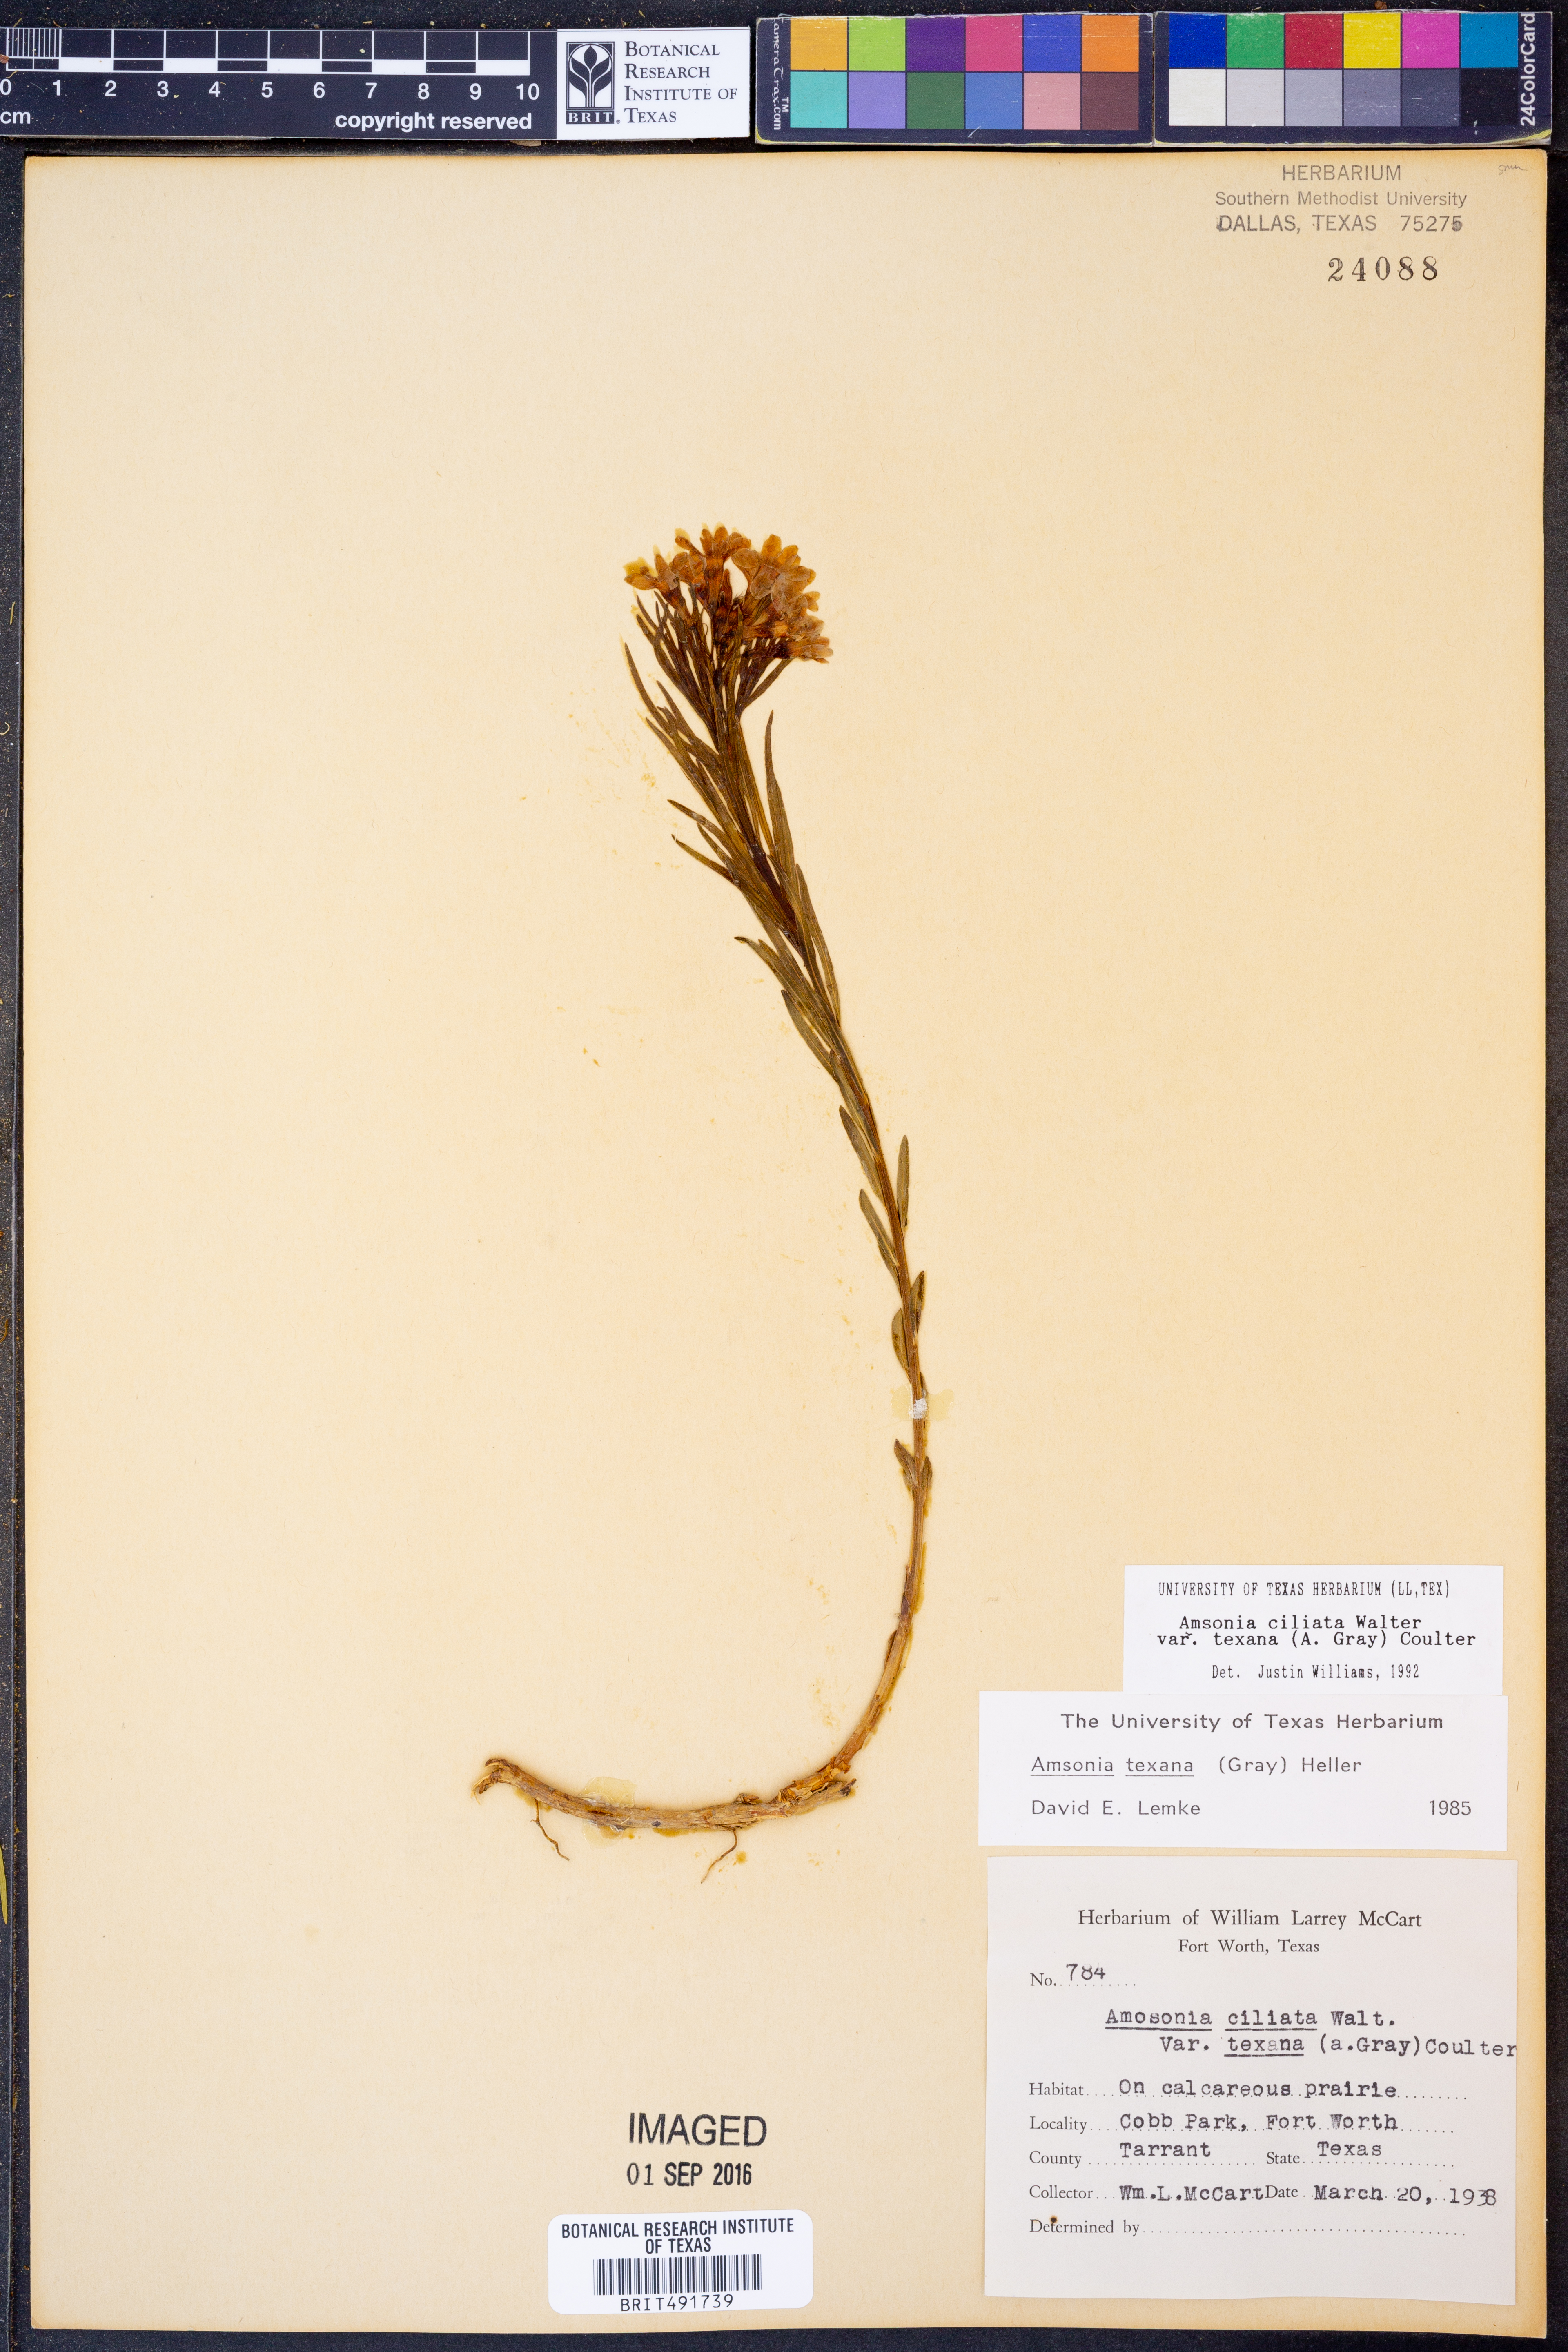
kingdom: Plantae
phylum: Tracheophyta
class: Magnoliopsida
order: Gentianales
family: Apocynaceae
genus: Amsonia
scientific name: Amsonia ciliata
